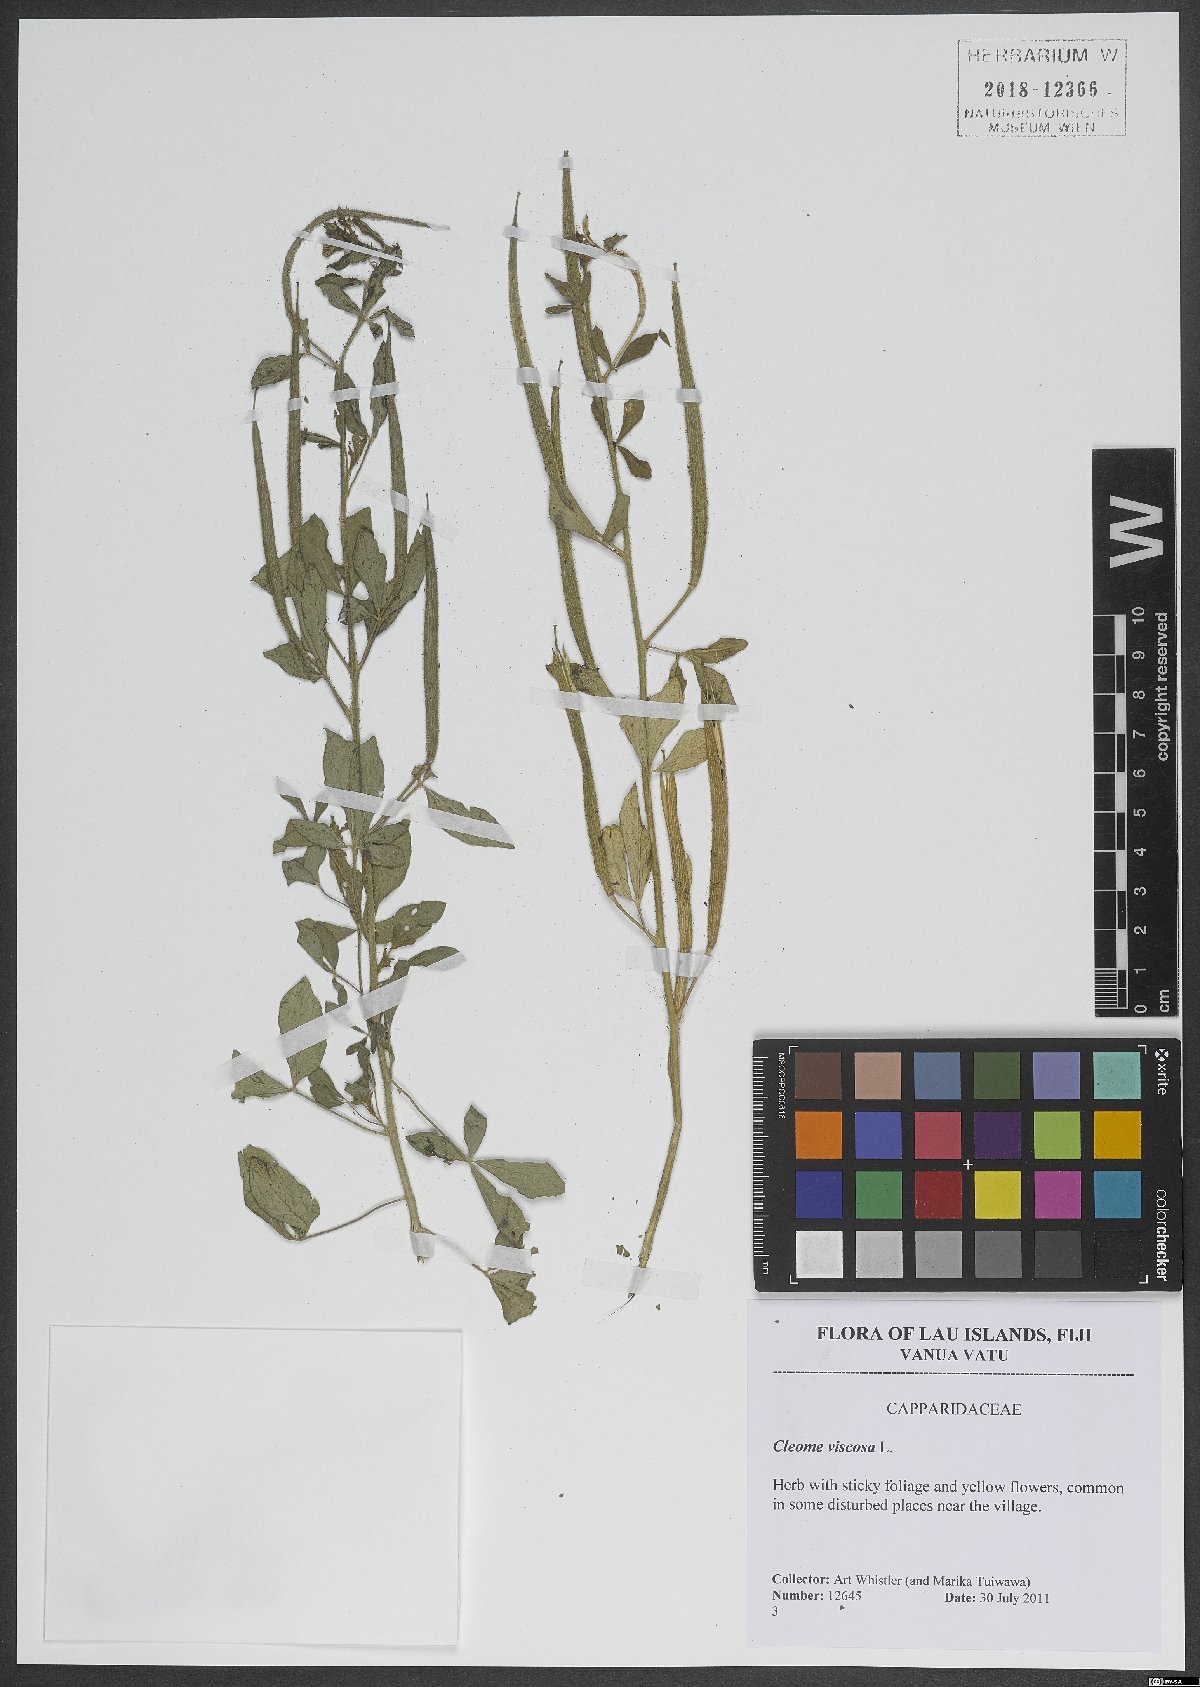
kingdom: Plantae
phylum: Tracheophyta
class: Magnoliopsida
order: Brassicales
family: Cleomaceae
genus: Arivela
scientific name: Arivela viscosa
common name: Asian spiderflower
